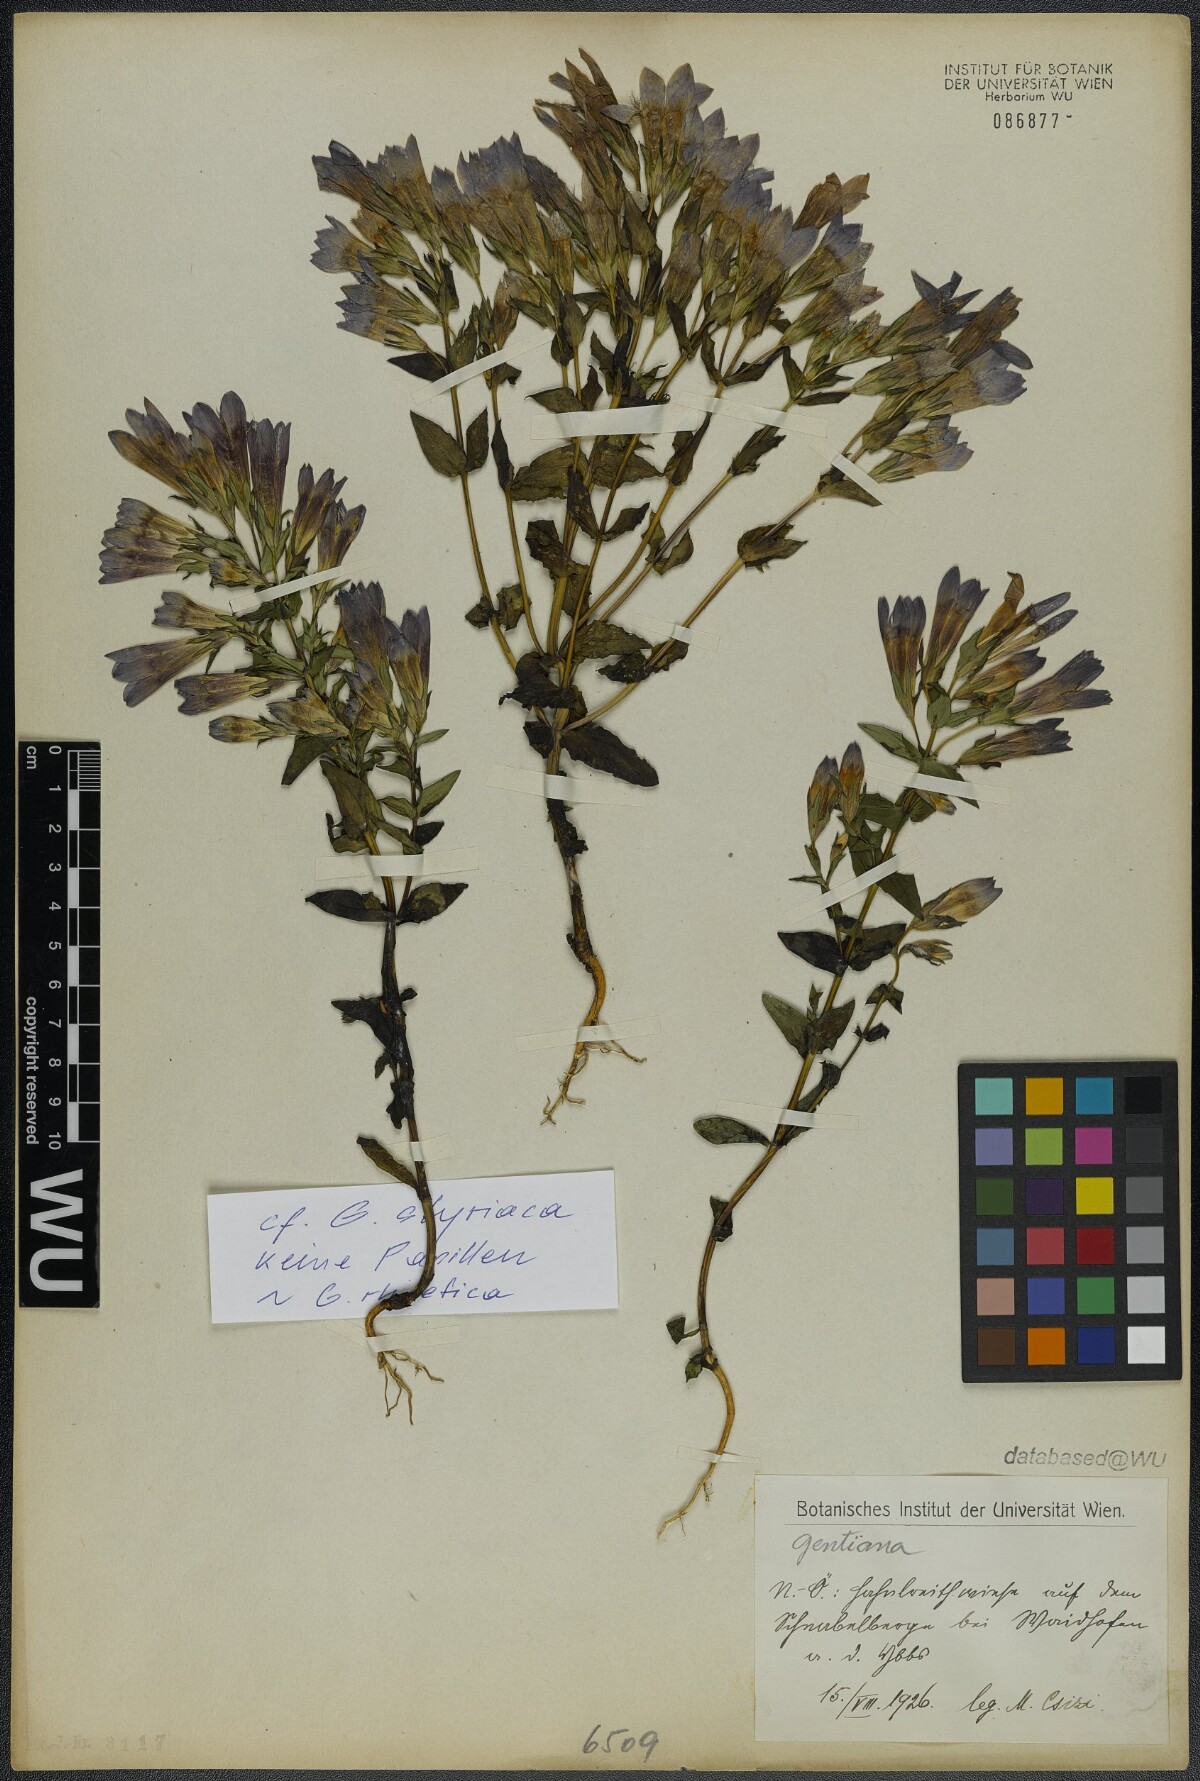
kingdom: Plantae
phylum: Tracheophyta
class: Magnoliopsida
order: Gentianales
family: Gentianaceae
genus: Gentianella
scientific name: Gentianella
